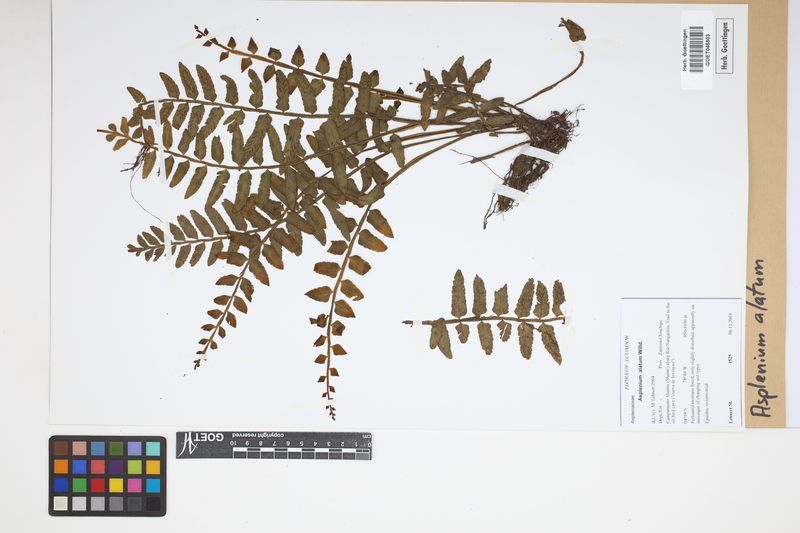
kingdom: Plantae
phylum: Tracheophyta
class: Polypodiopsida
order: Polypodiales
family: Aspleniaceae
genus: Asplenium
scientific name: Asplenium alatum
